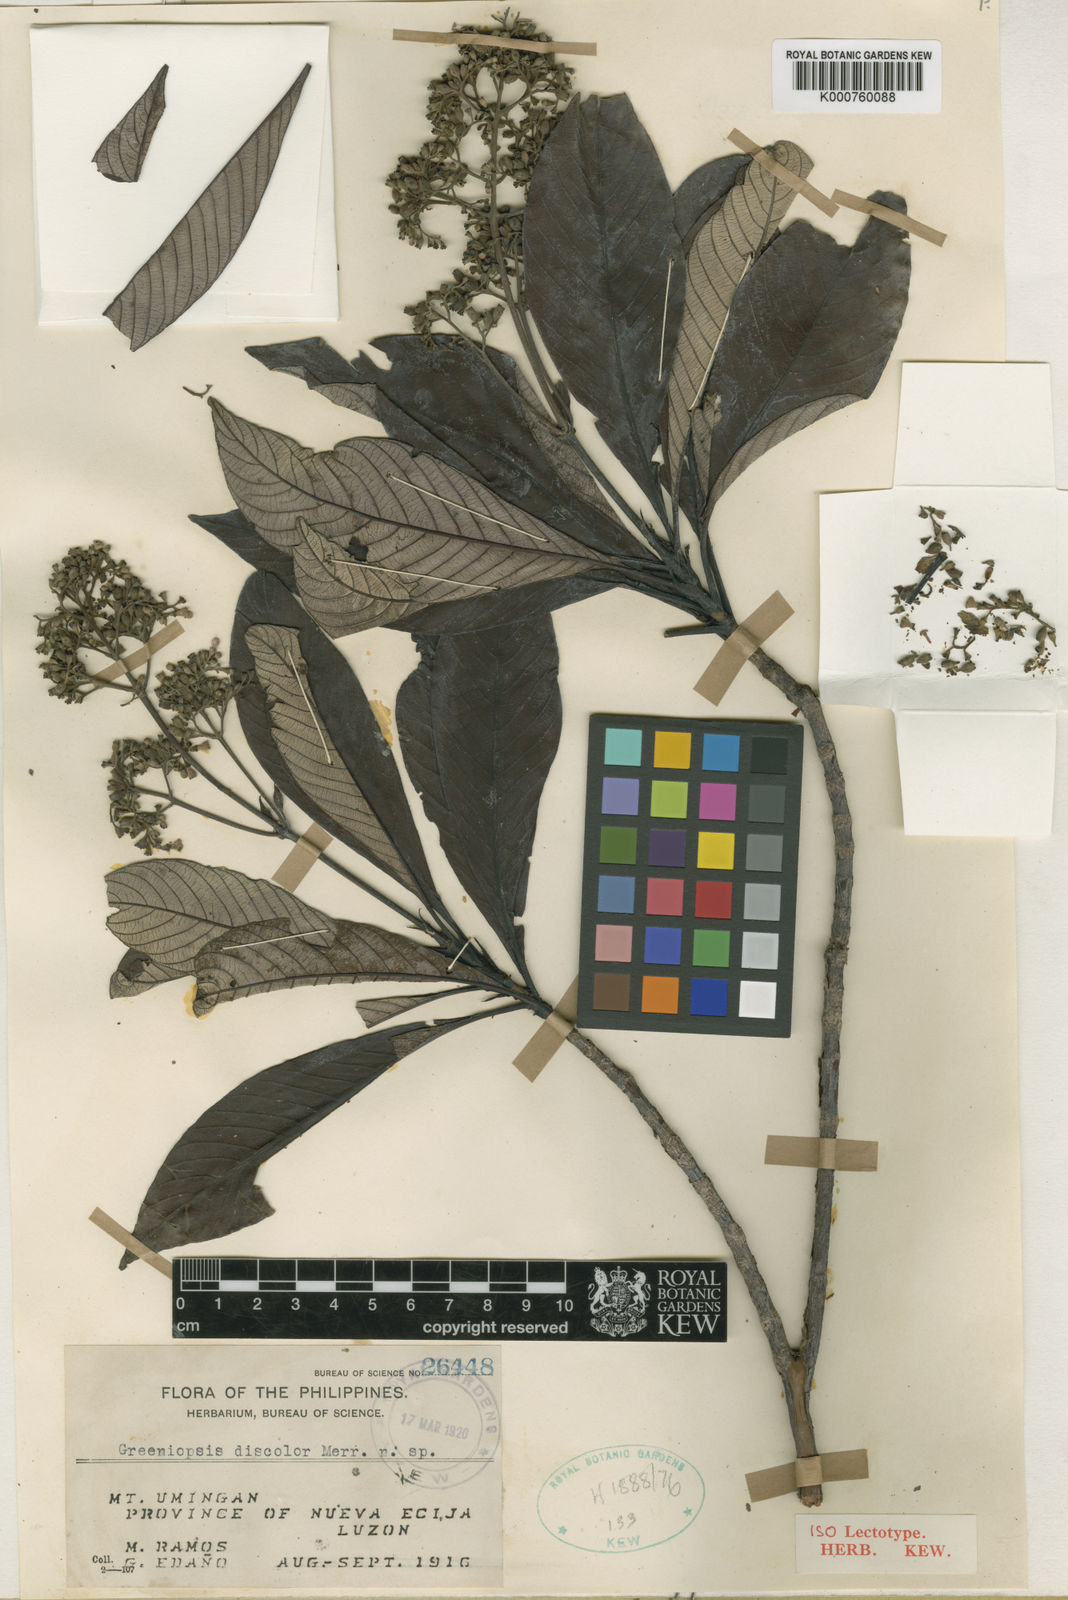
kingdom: Plantae
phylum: Tracheophyta
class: Magnoliopsida
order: Gentianales
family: Rubiaceae
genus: Greeniopsis
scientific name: Greeniopsis discolor
